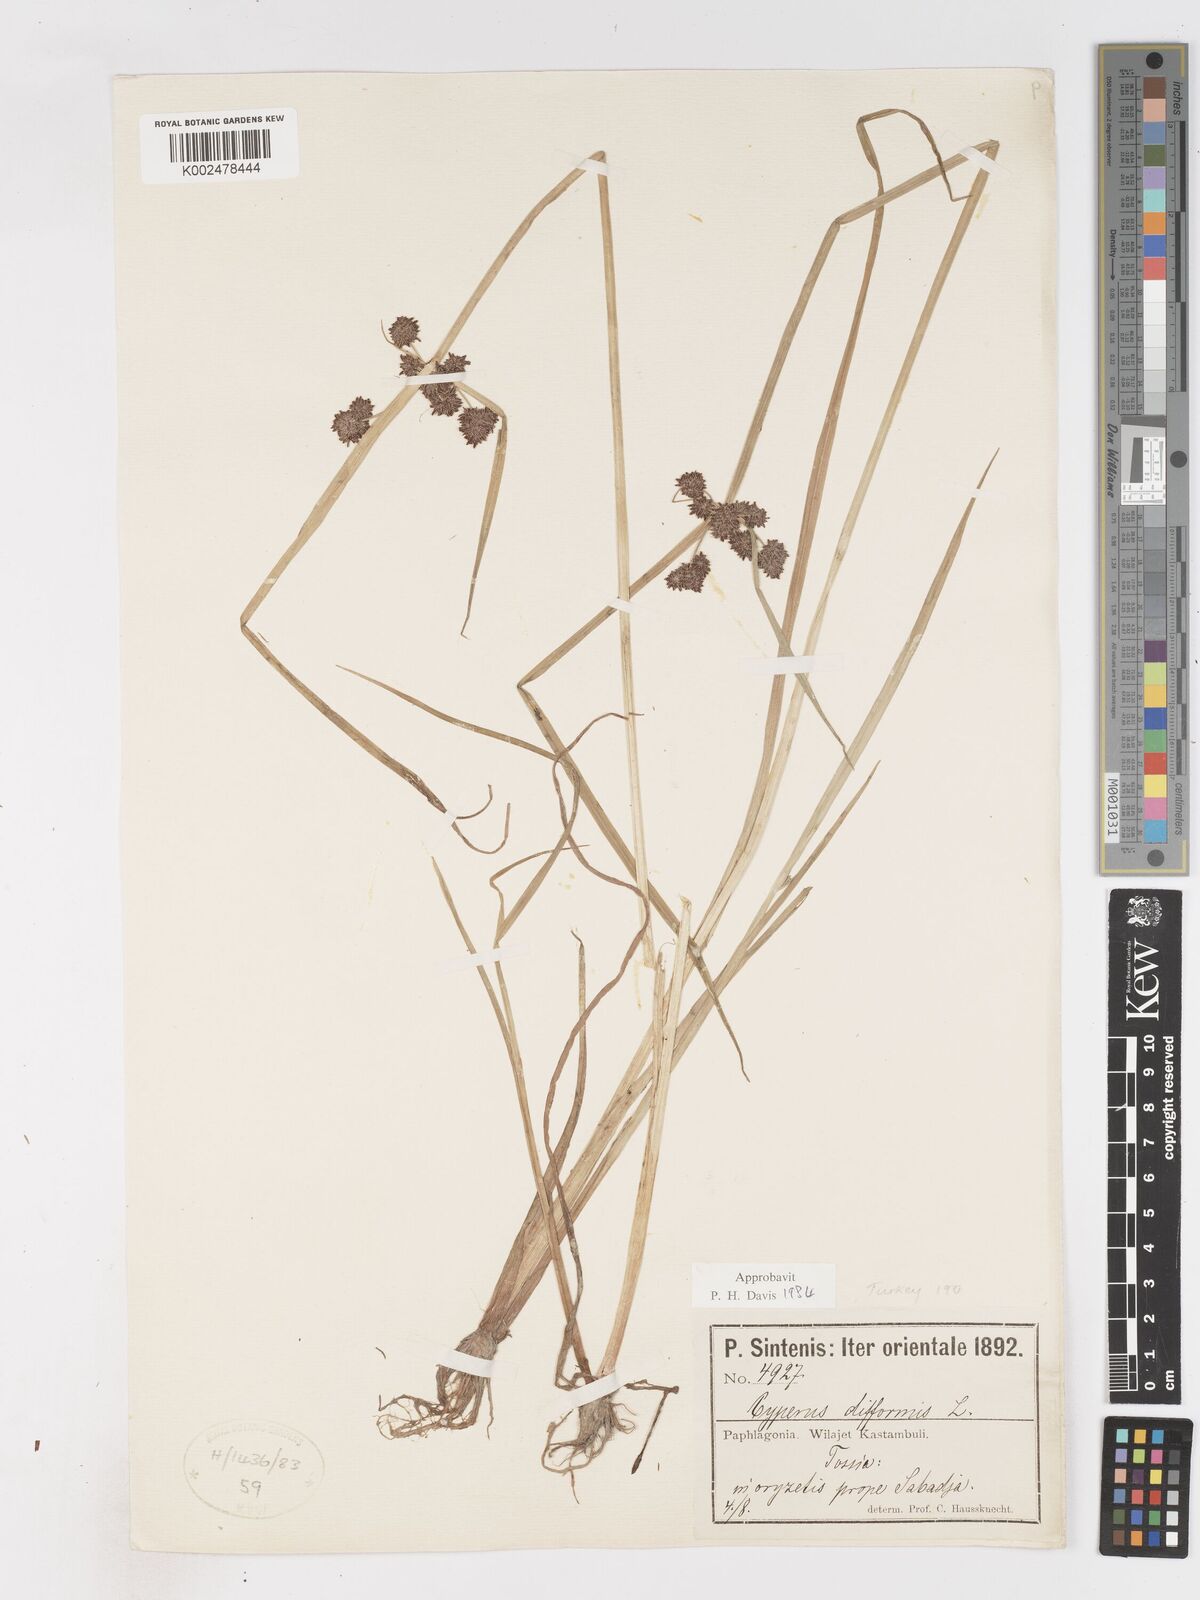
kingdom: Plantae
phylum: Tracheophyta
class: Liliopsida
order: Poales
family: Cyperaceae
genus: Cyperus
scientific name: Cyperus difformis
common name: Variable flatsedge
